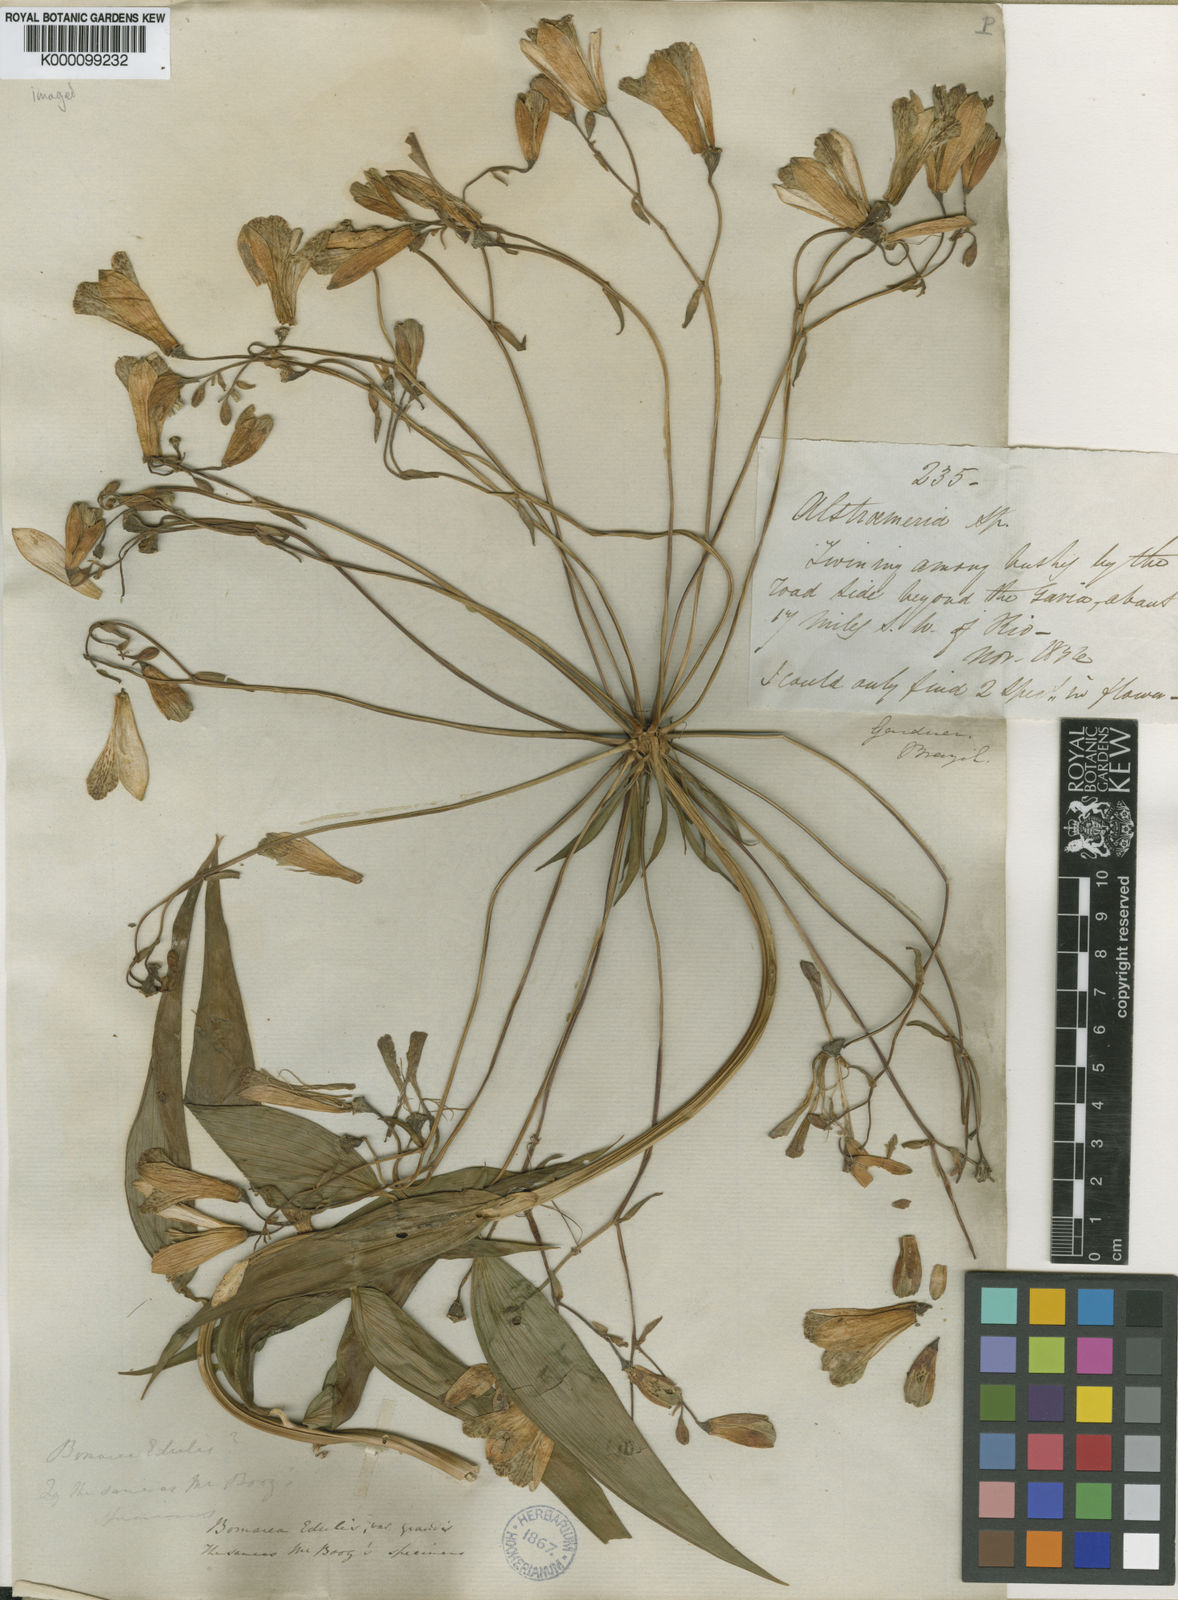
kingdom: Plantae
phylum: Tracheophyta
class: Liliopsida
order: Liliales
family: Alstroemeriaceae
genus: Bomarea
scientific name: Bomarea edulis
